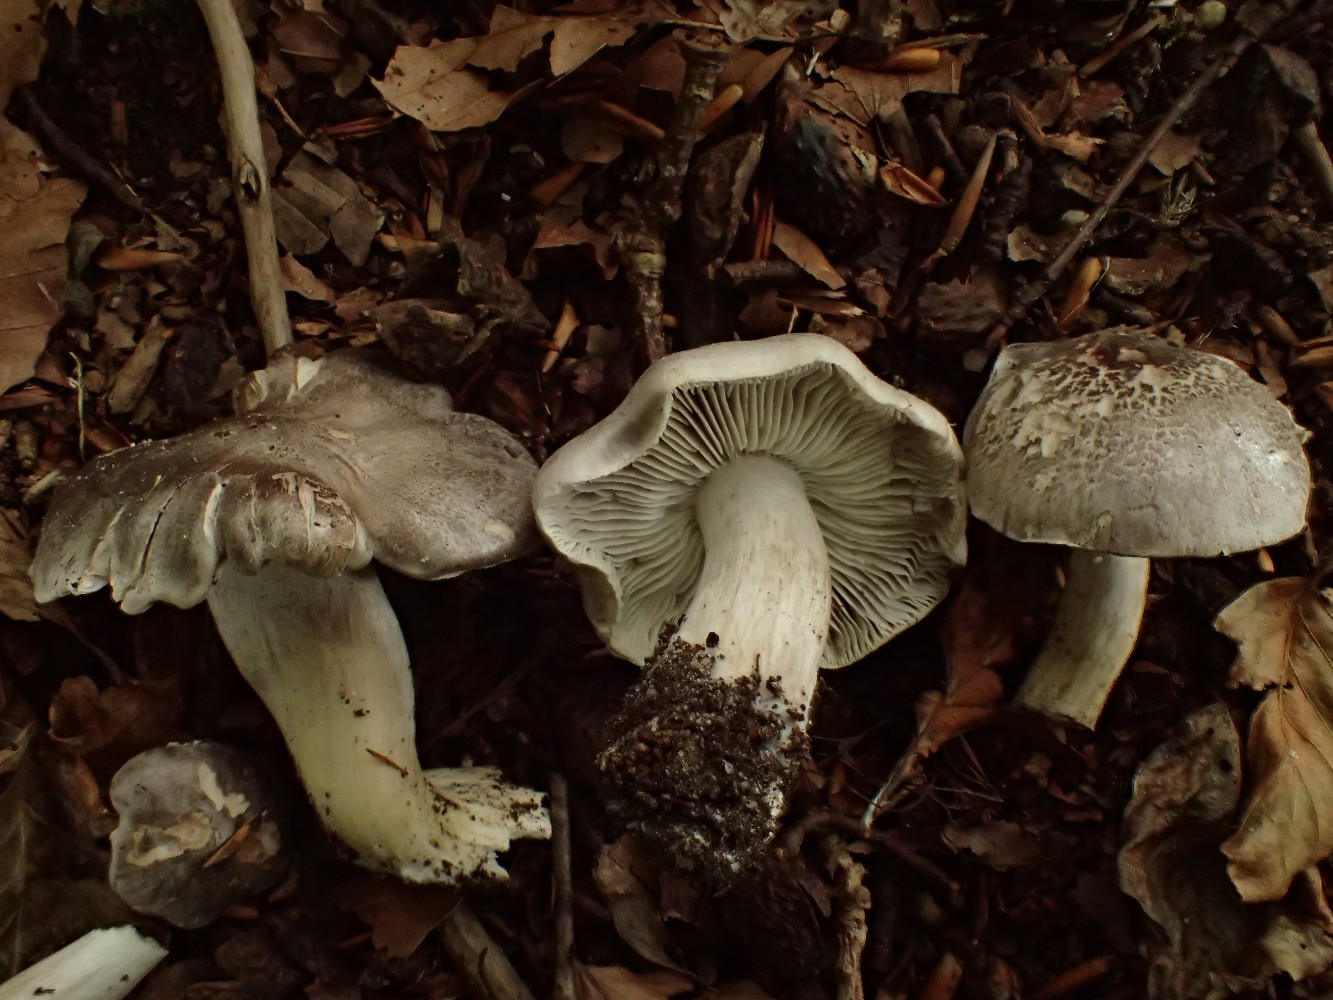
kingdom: Fungi
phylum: Basidiomycota
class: Agaricomycetes
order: Agaricales
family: Tricholomataceae
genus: Tricholoma
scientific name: Tricholoma sciodes
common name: stribet ridderhat
